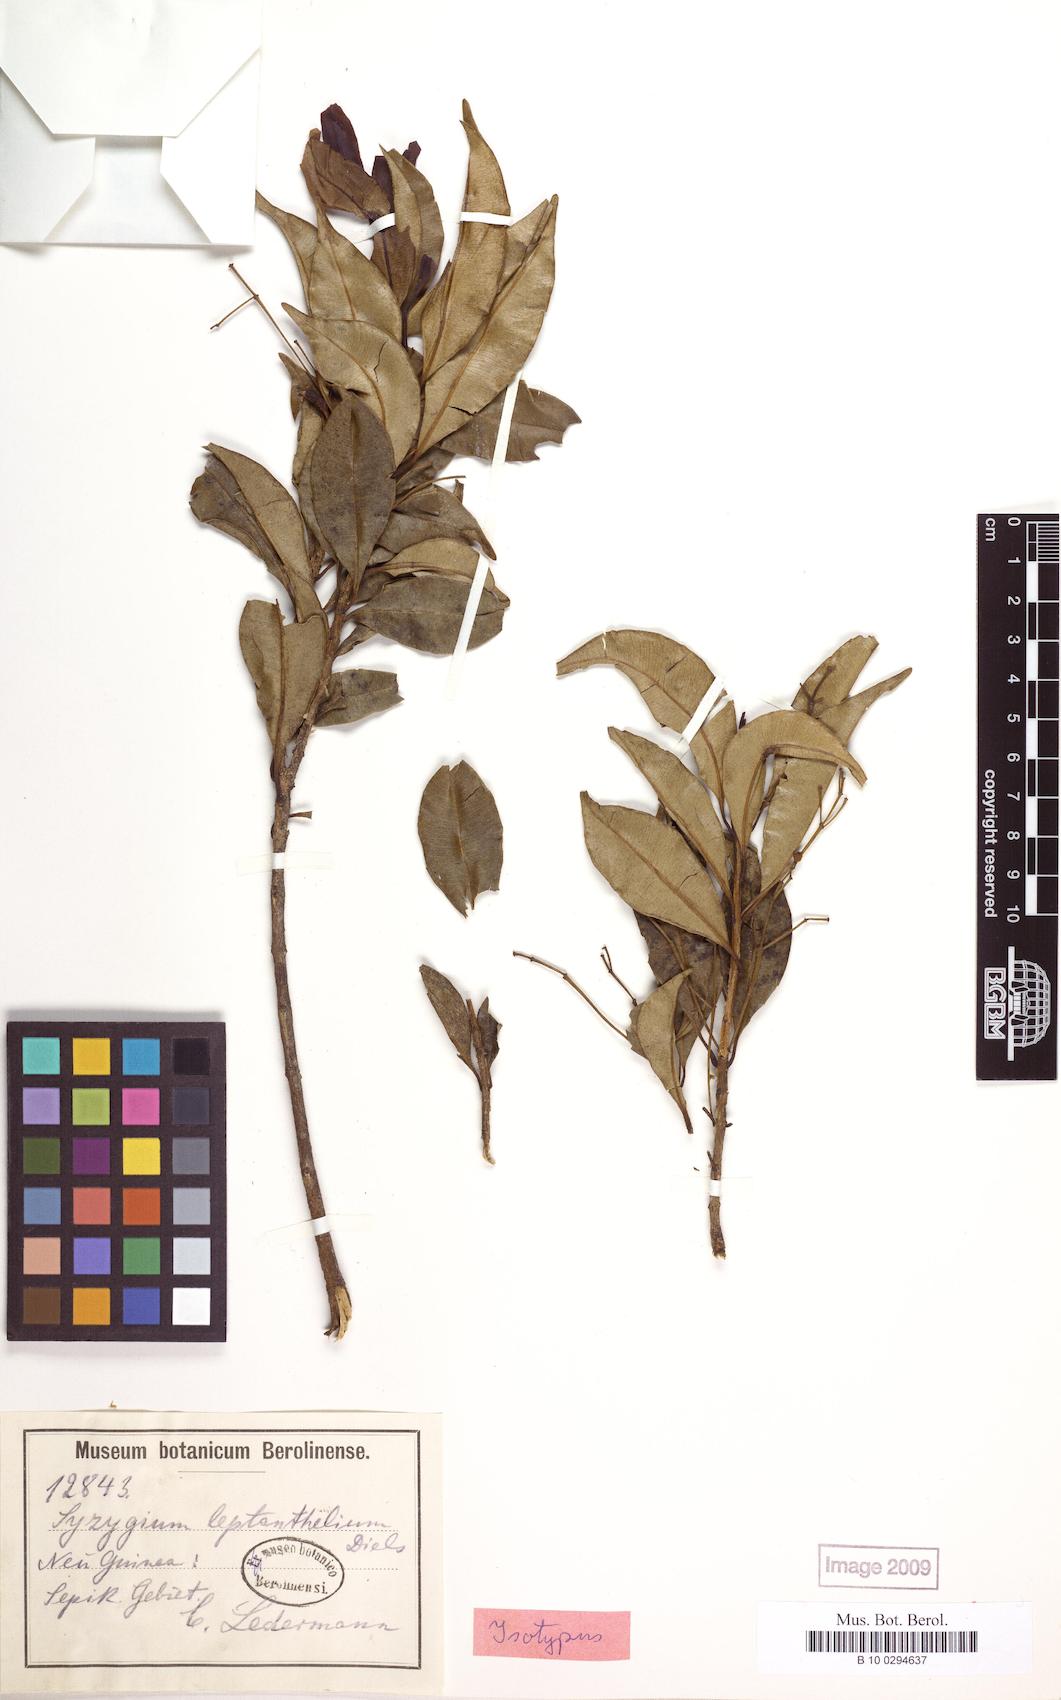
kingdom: Plantae
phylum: Tracheophyta
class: Magnoliopsida
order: Myrtales
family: Myrtaceae
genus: Syzygium
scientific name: Syzygium plumeum
